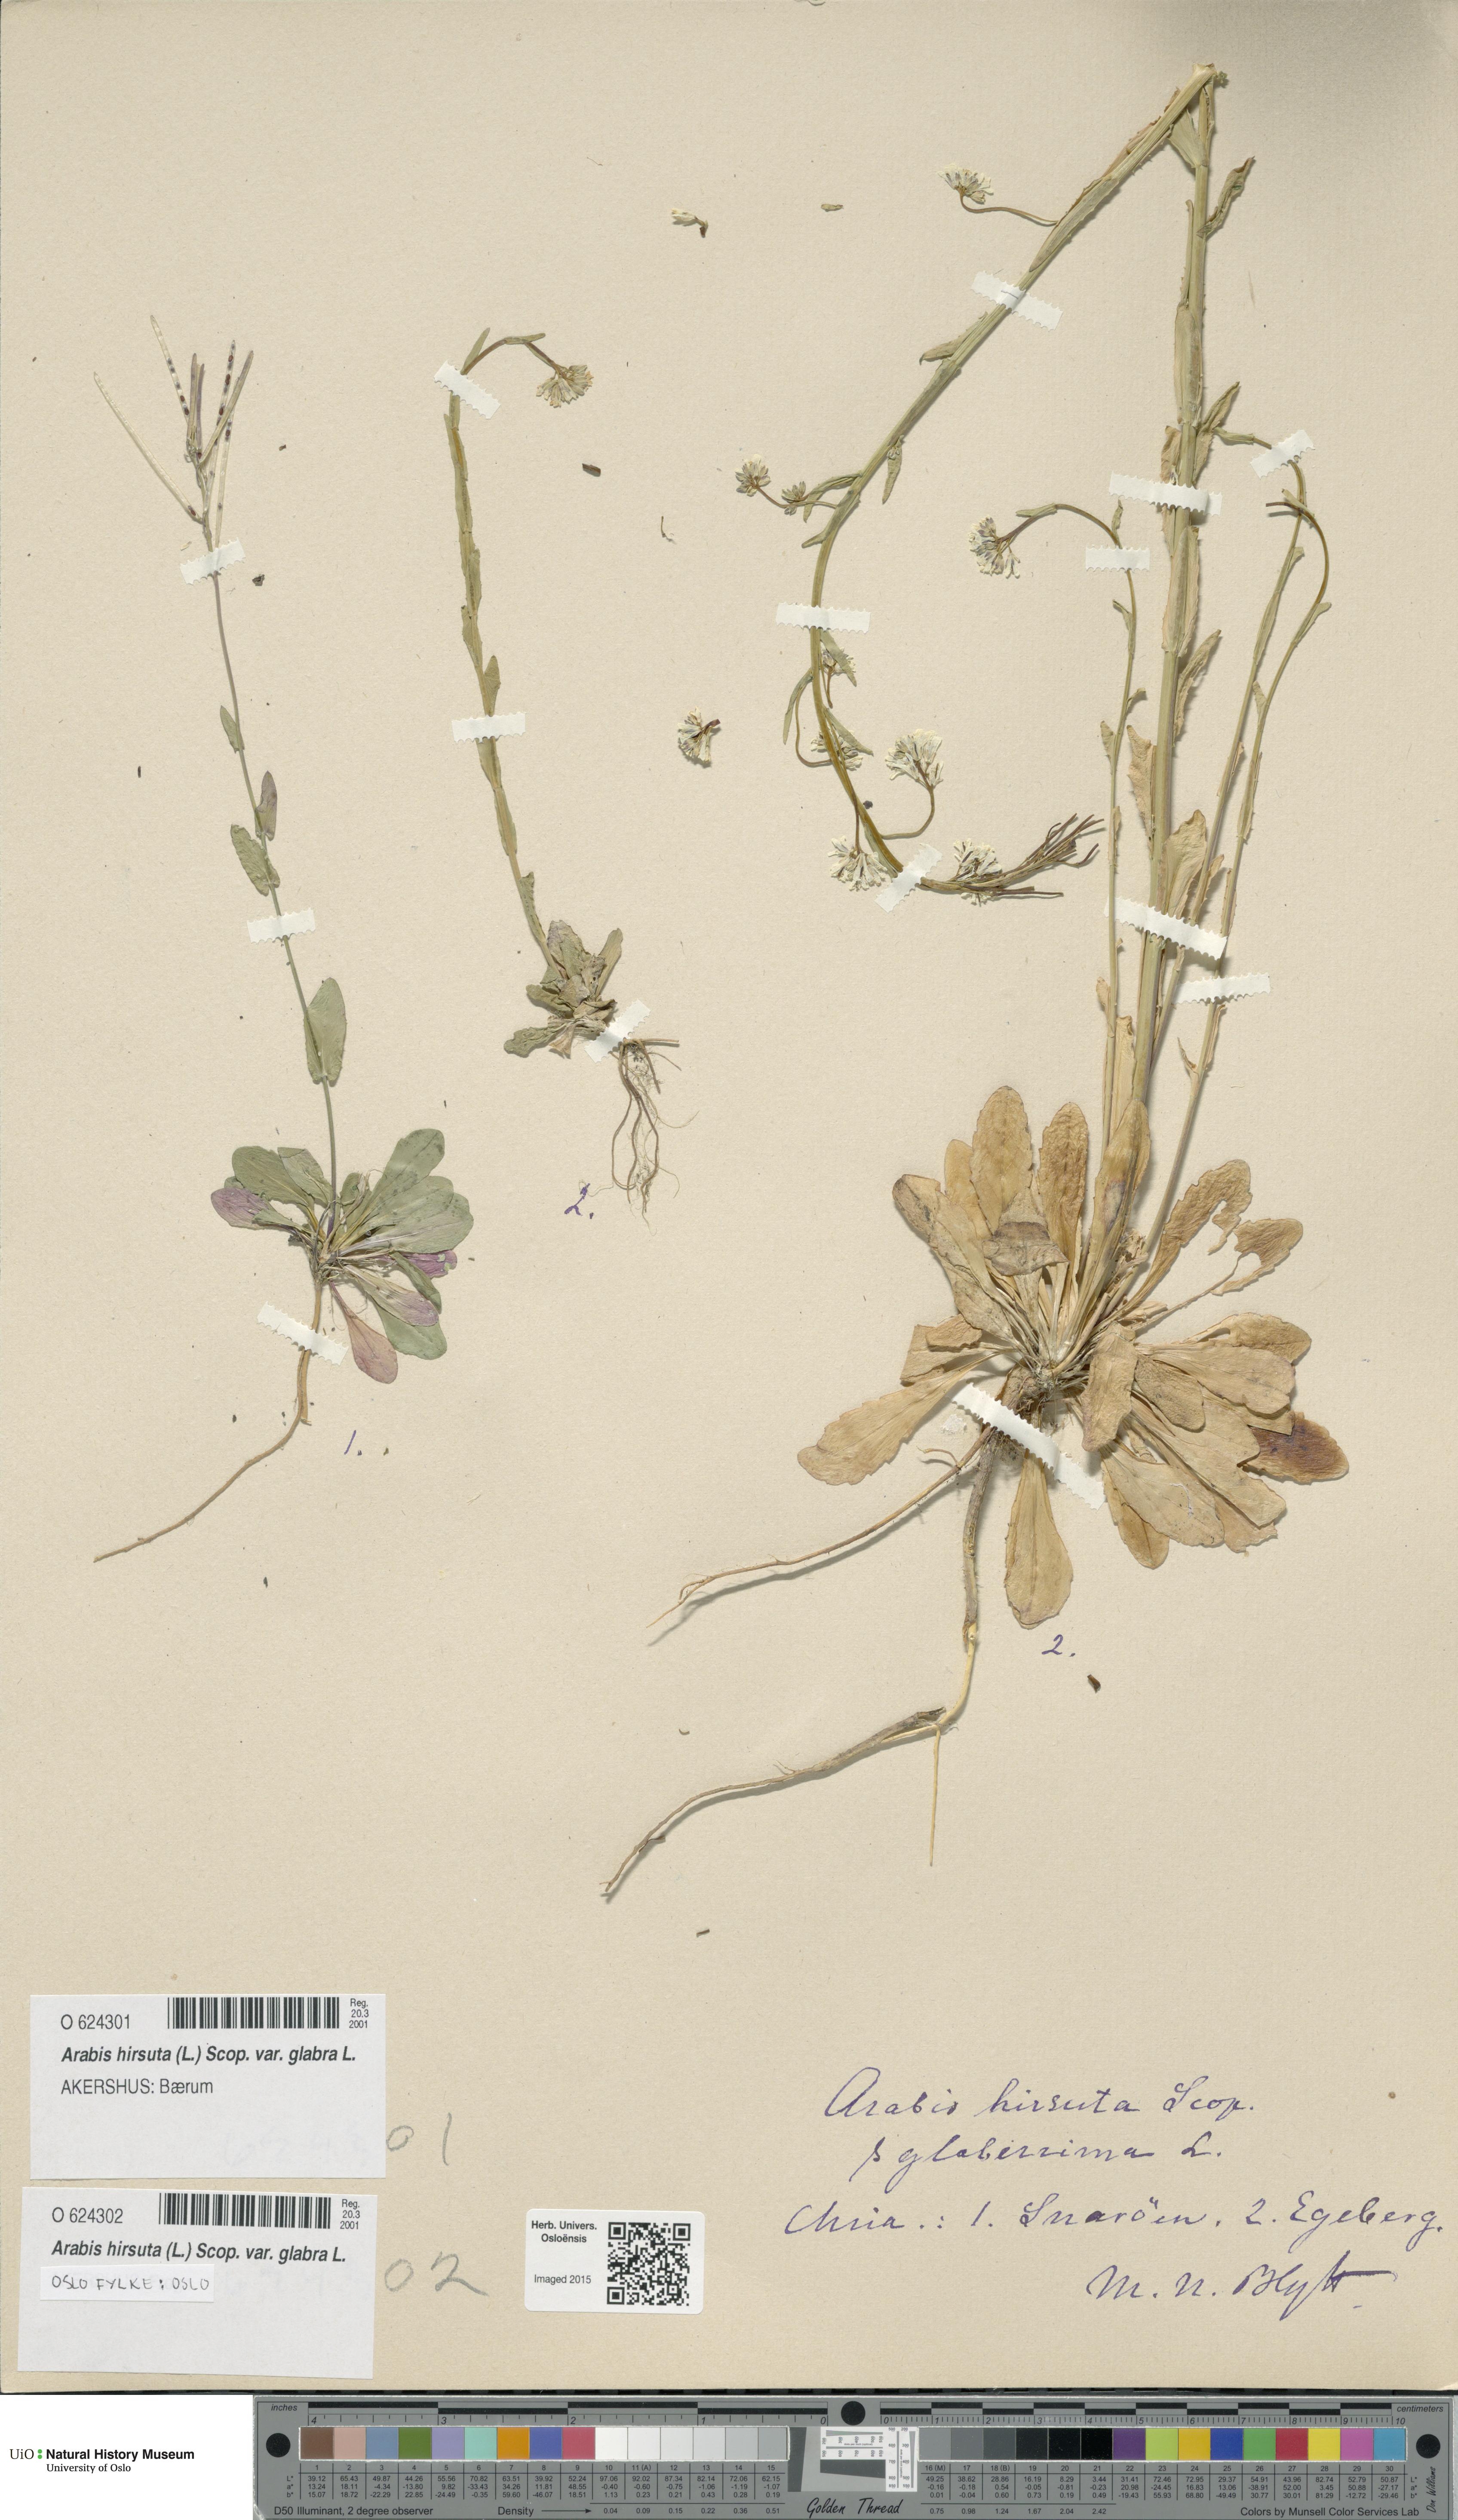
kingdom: Plantae
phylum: Tracheophyta
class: Magnoliopsida
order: Brassicales
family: Brassicaceae
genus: Arabis
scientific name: Arabis hirsuta
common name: Hairy rock-cress
